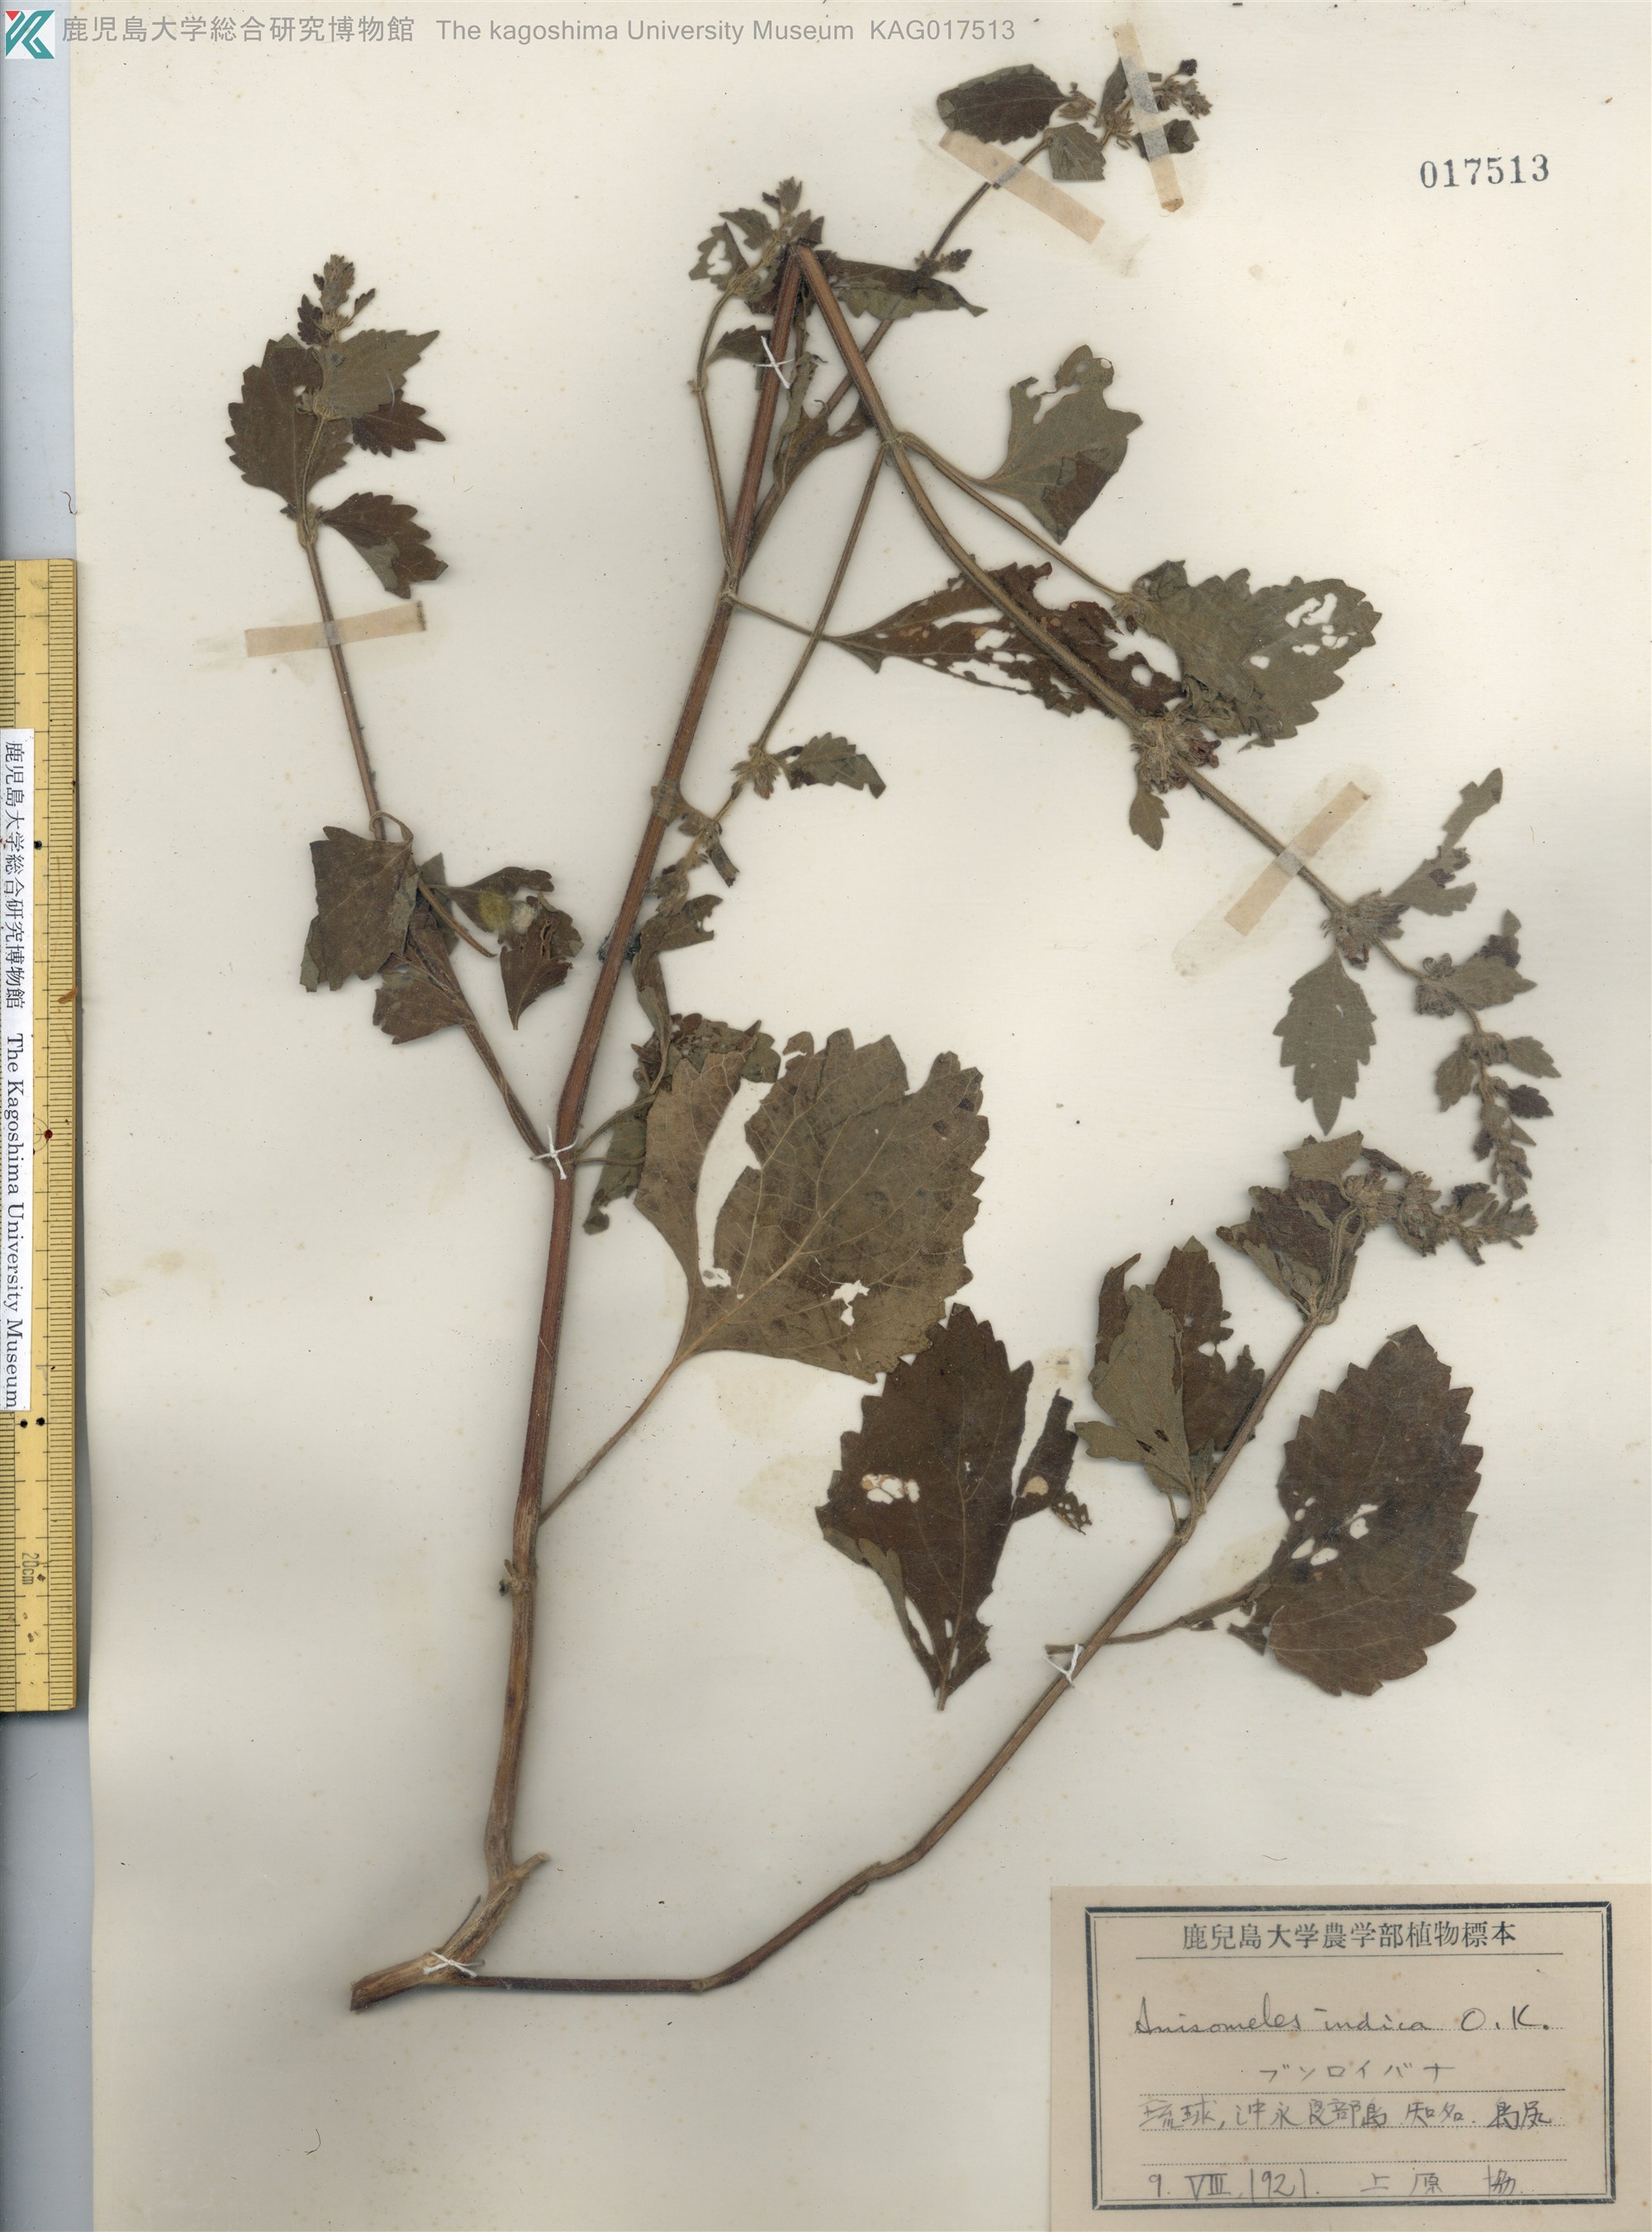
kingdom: Plantae
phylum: Tracheophyta
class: Magnoliopsida
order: Lamiales
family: Lamiaceae
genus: Anisomeles
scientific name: Anisomeles indica
